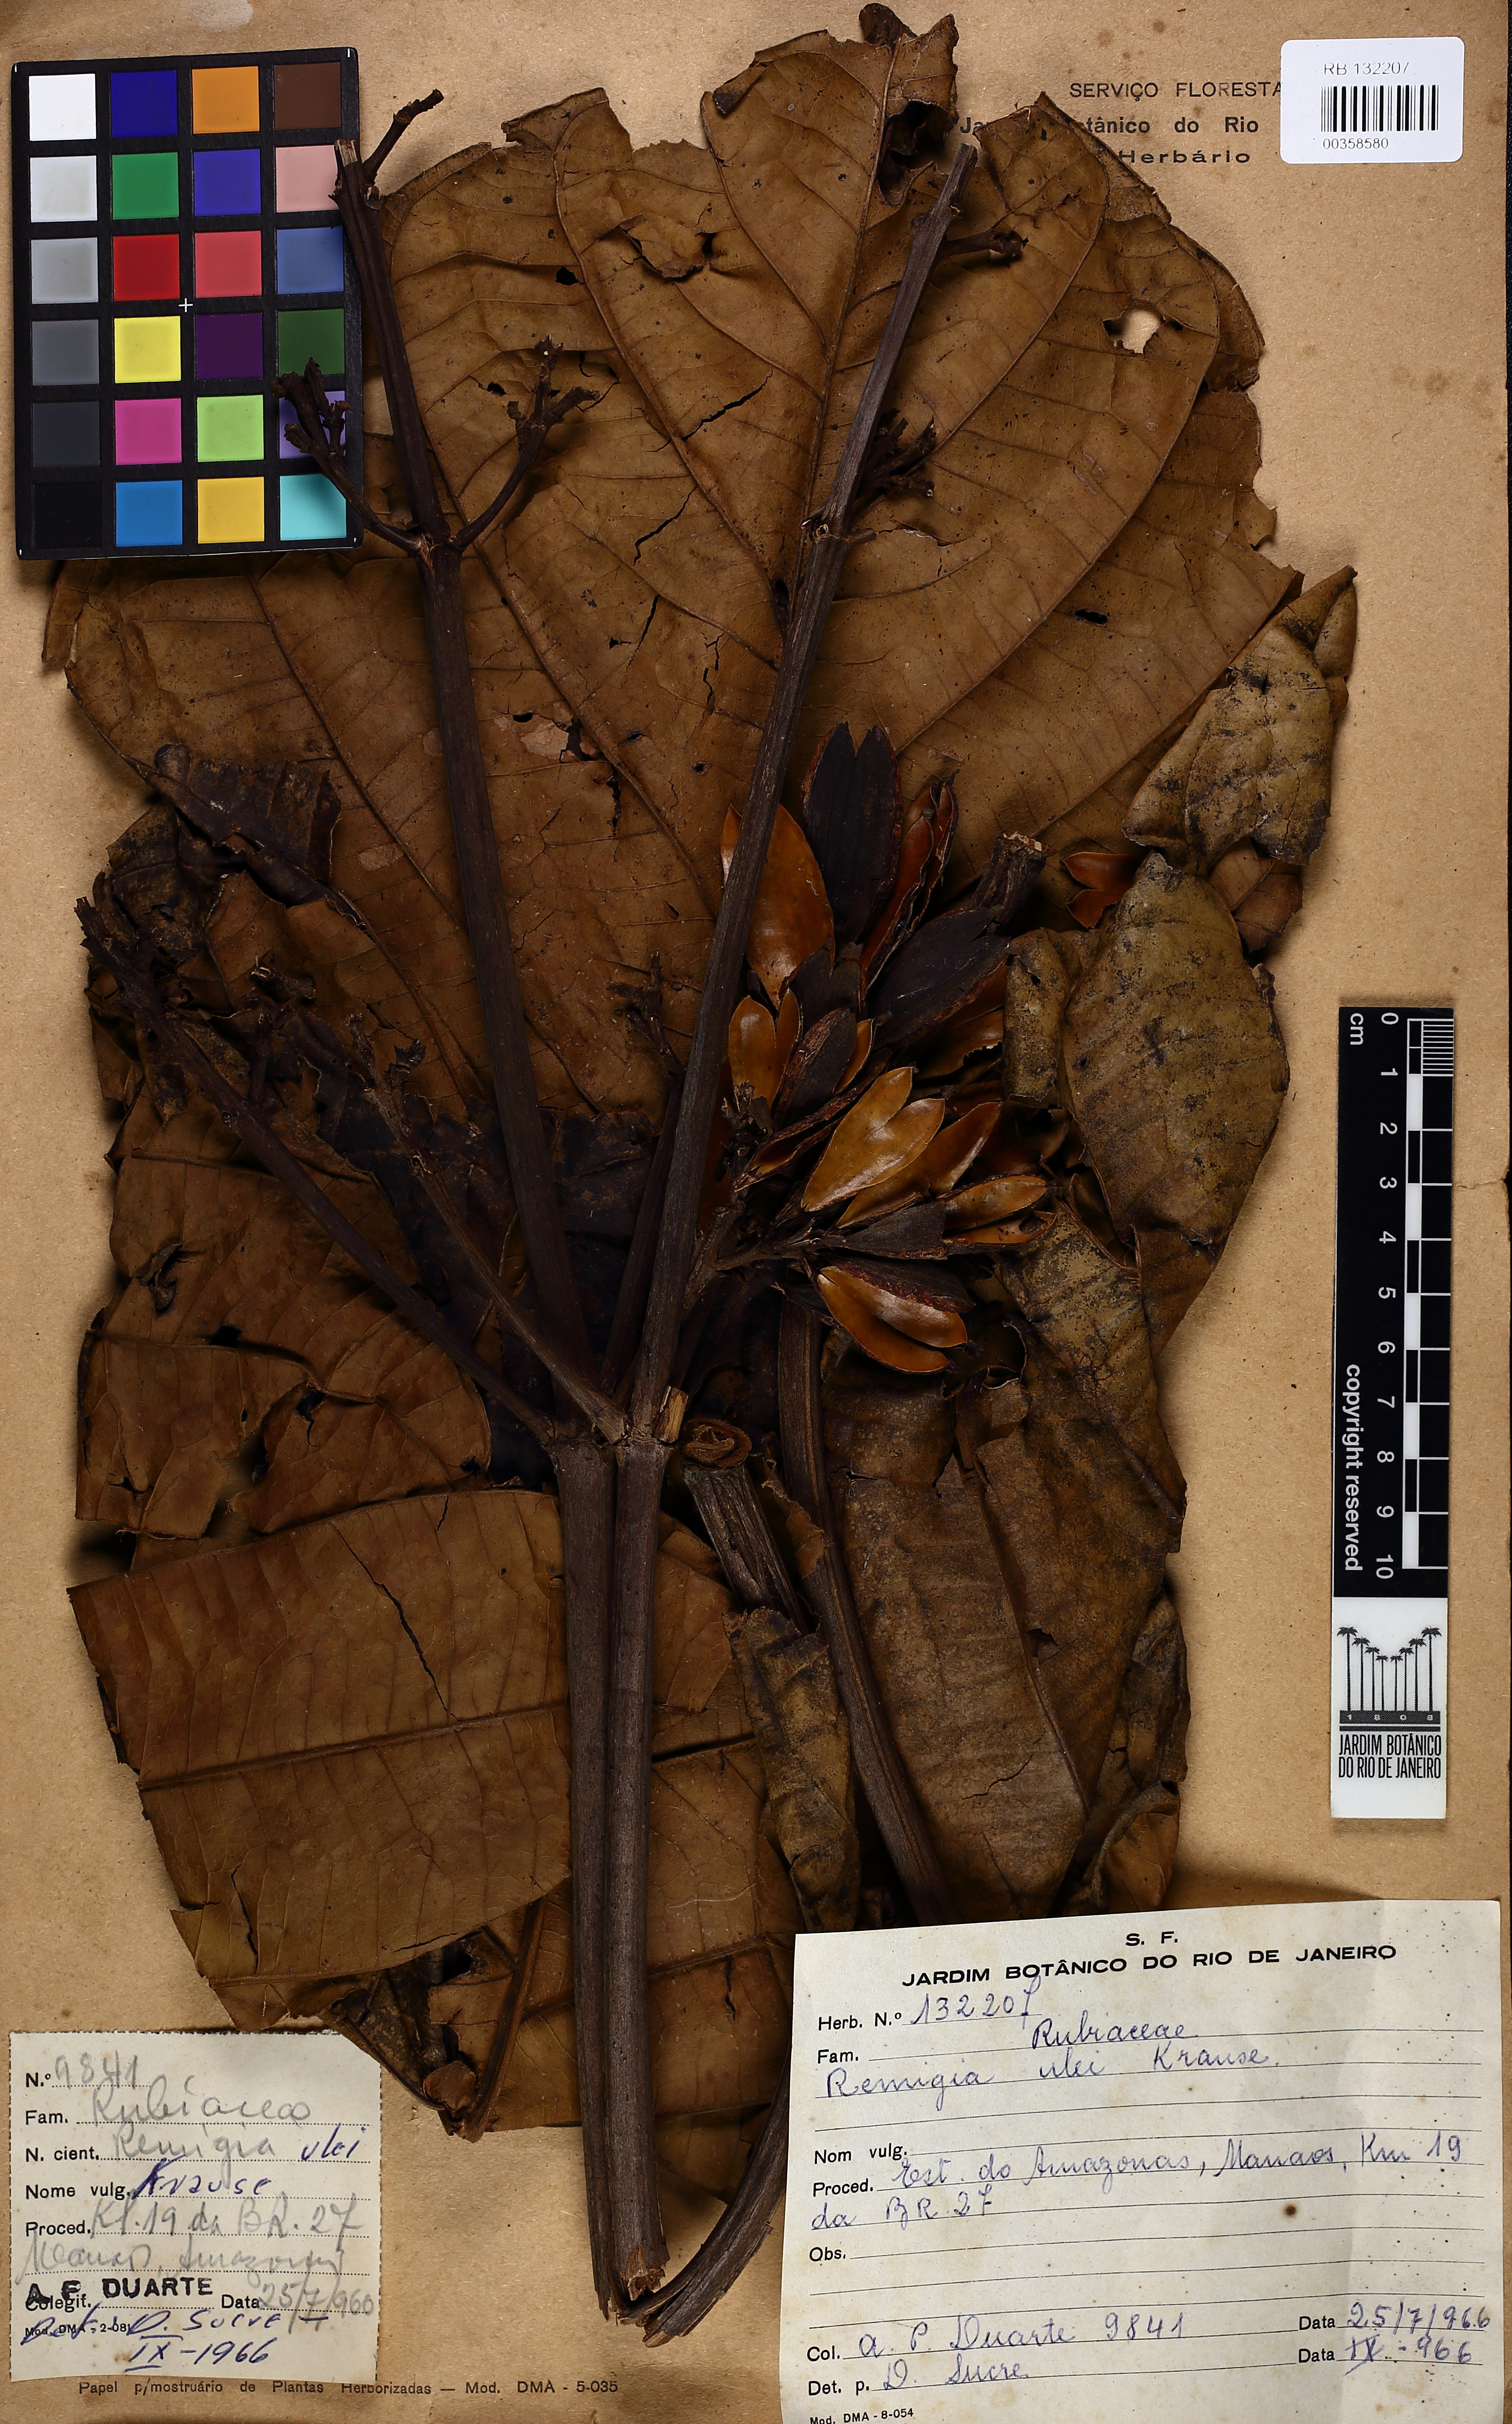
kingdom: Plantae
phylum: Tracheophyta
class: Magnoliopsida
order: Gentianales
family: Rubiaceae
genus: Remijia
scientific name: Remijia ulei
